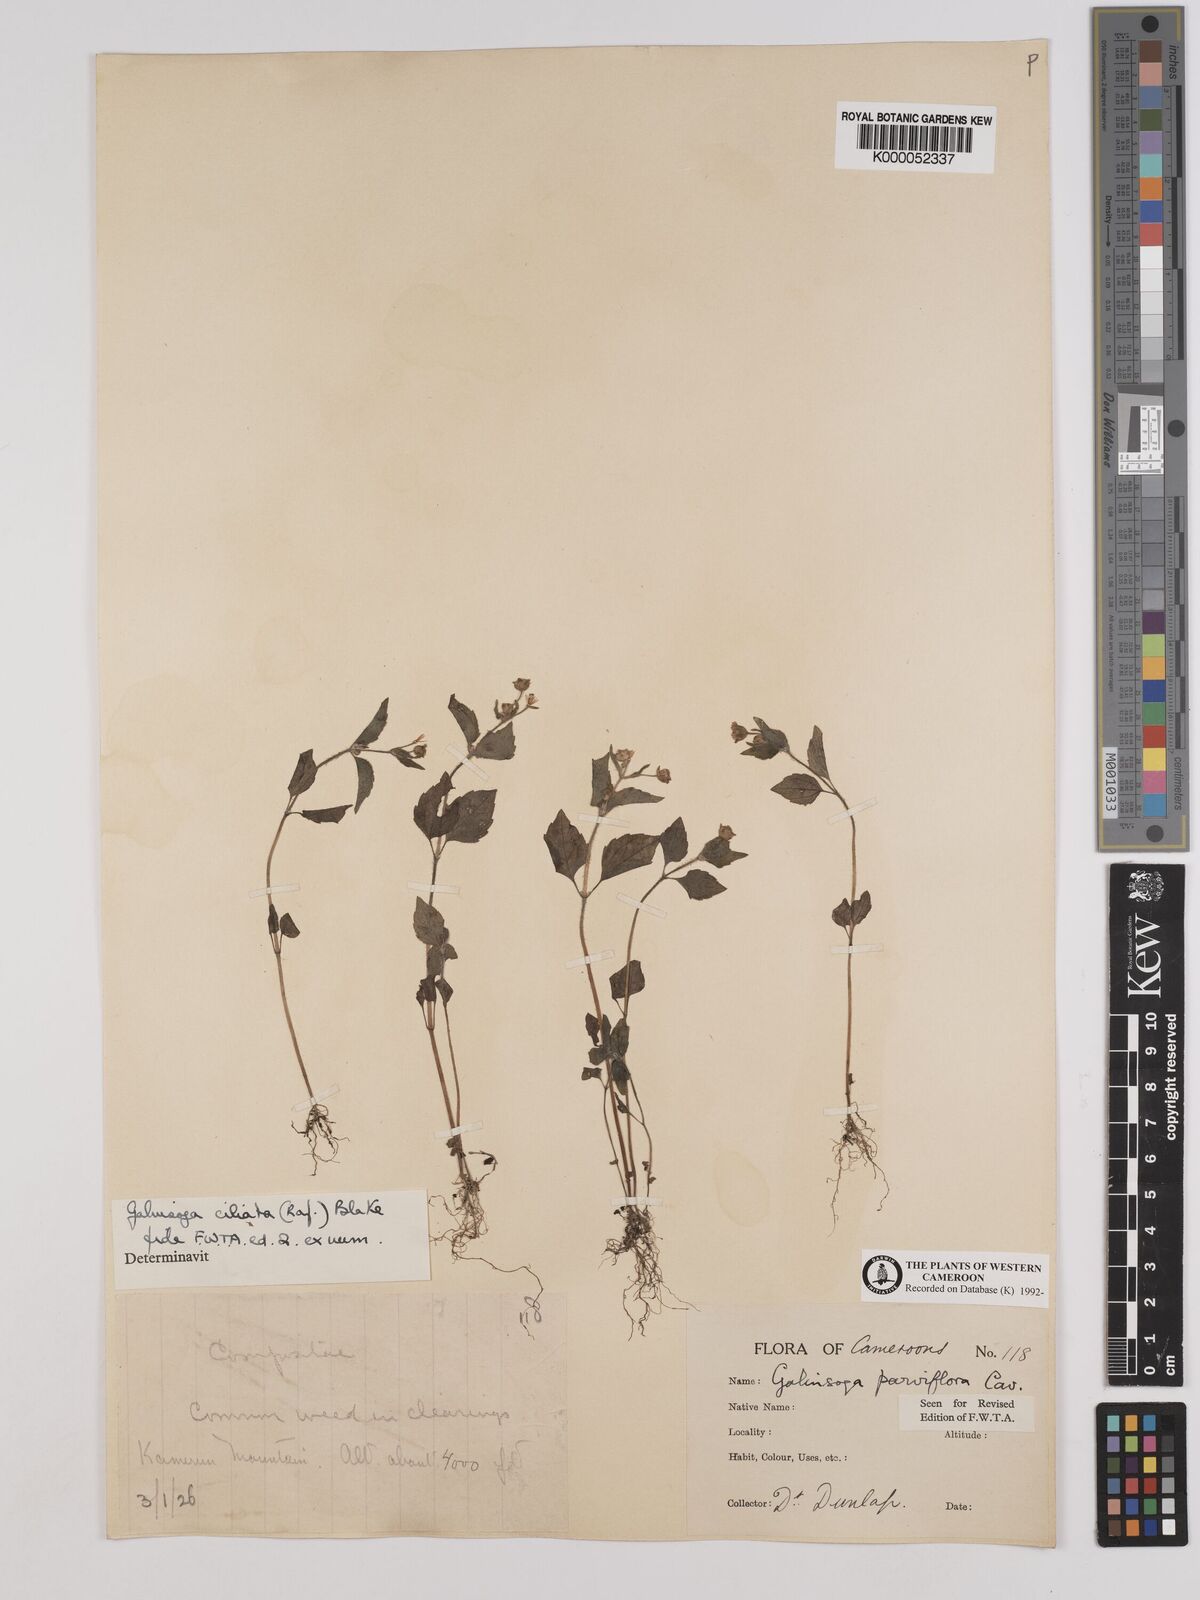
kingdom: Plantae
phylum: Tracheophyta
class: Magnoliopsida
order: Asterales
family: Asteraceae
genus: Galinsoga
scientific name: Galinsoga quadriradiata
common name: Shaggy soldier
